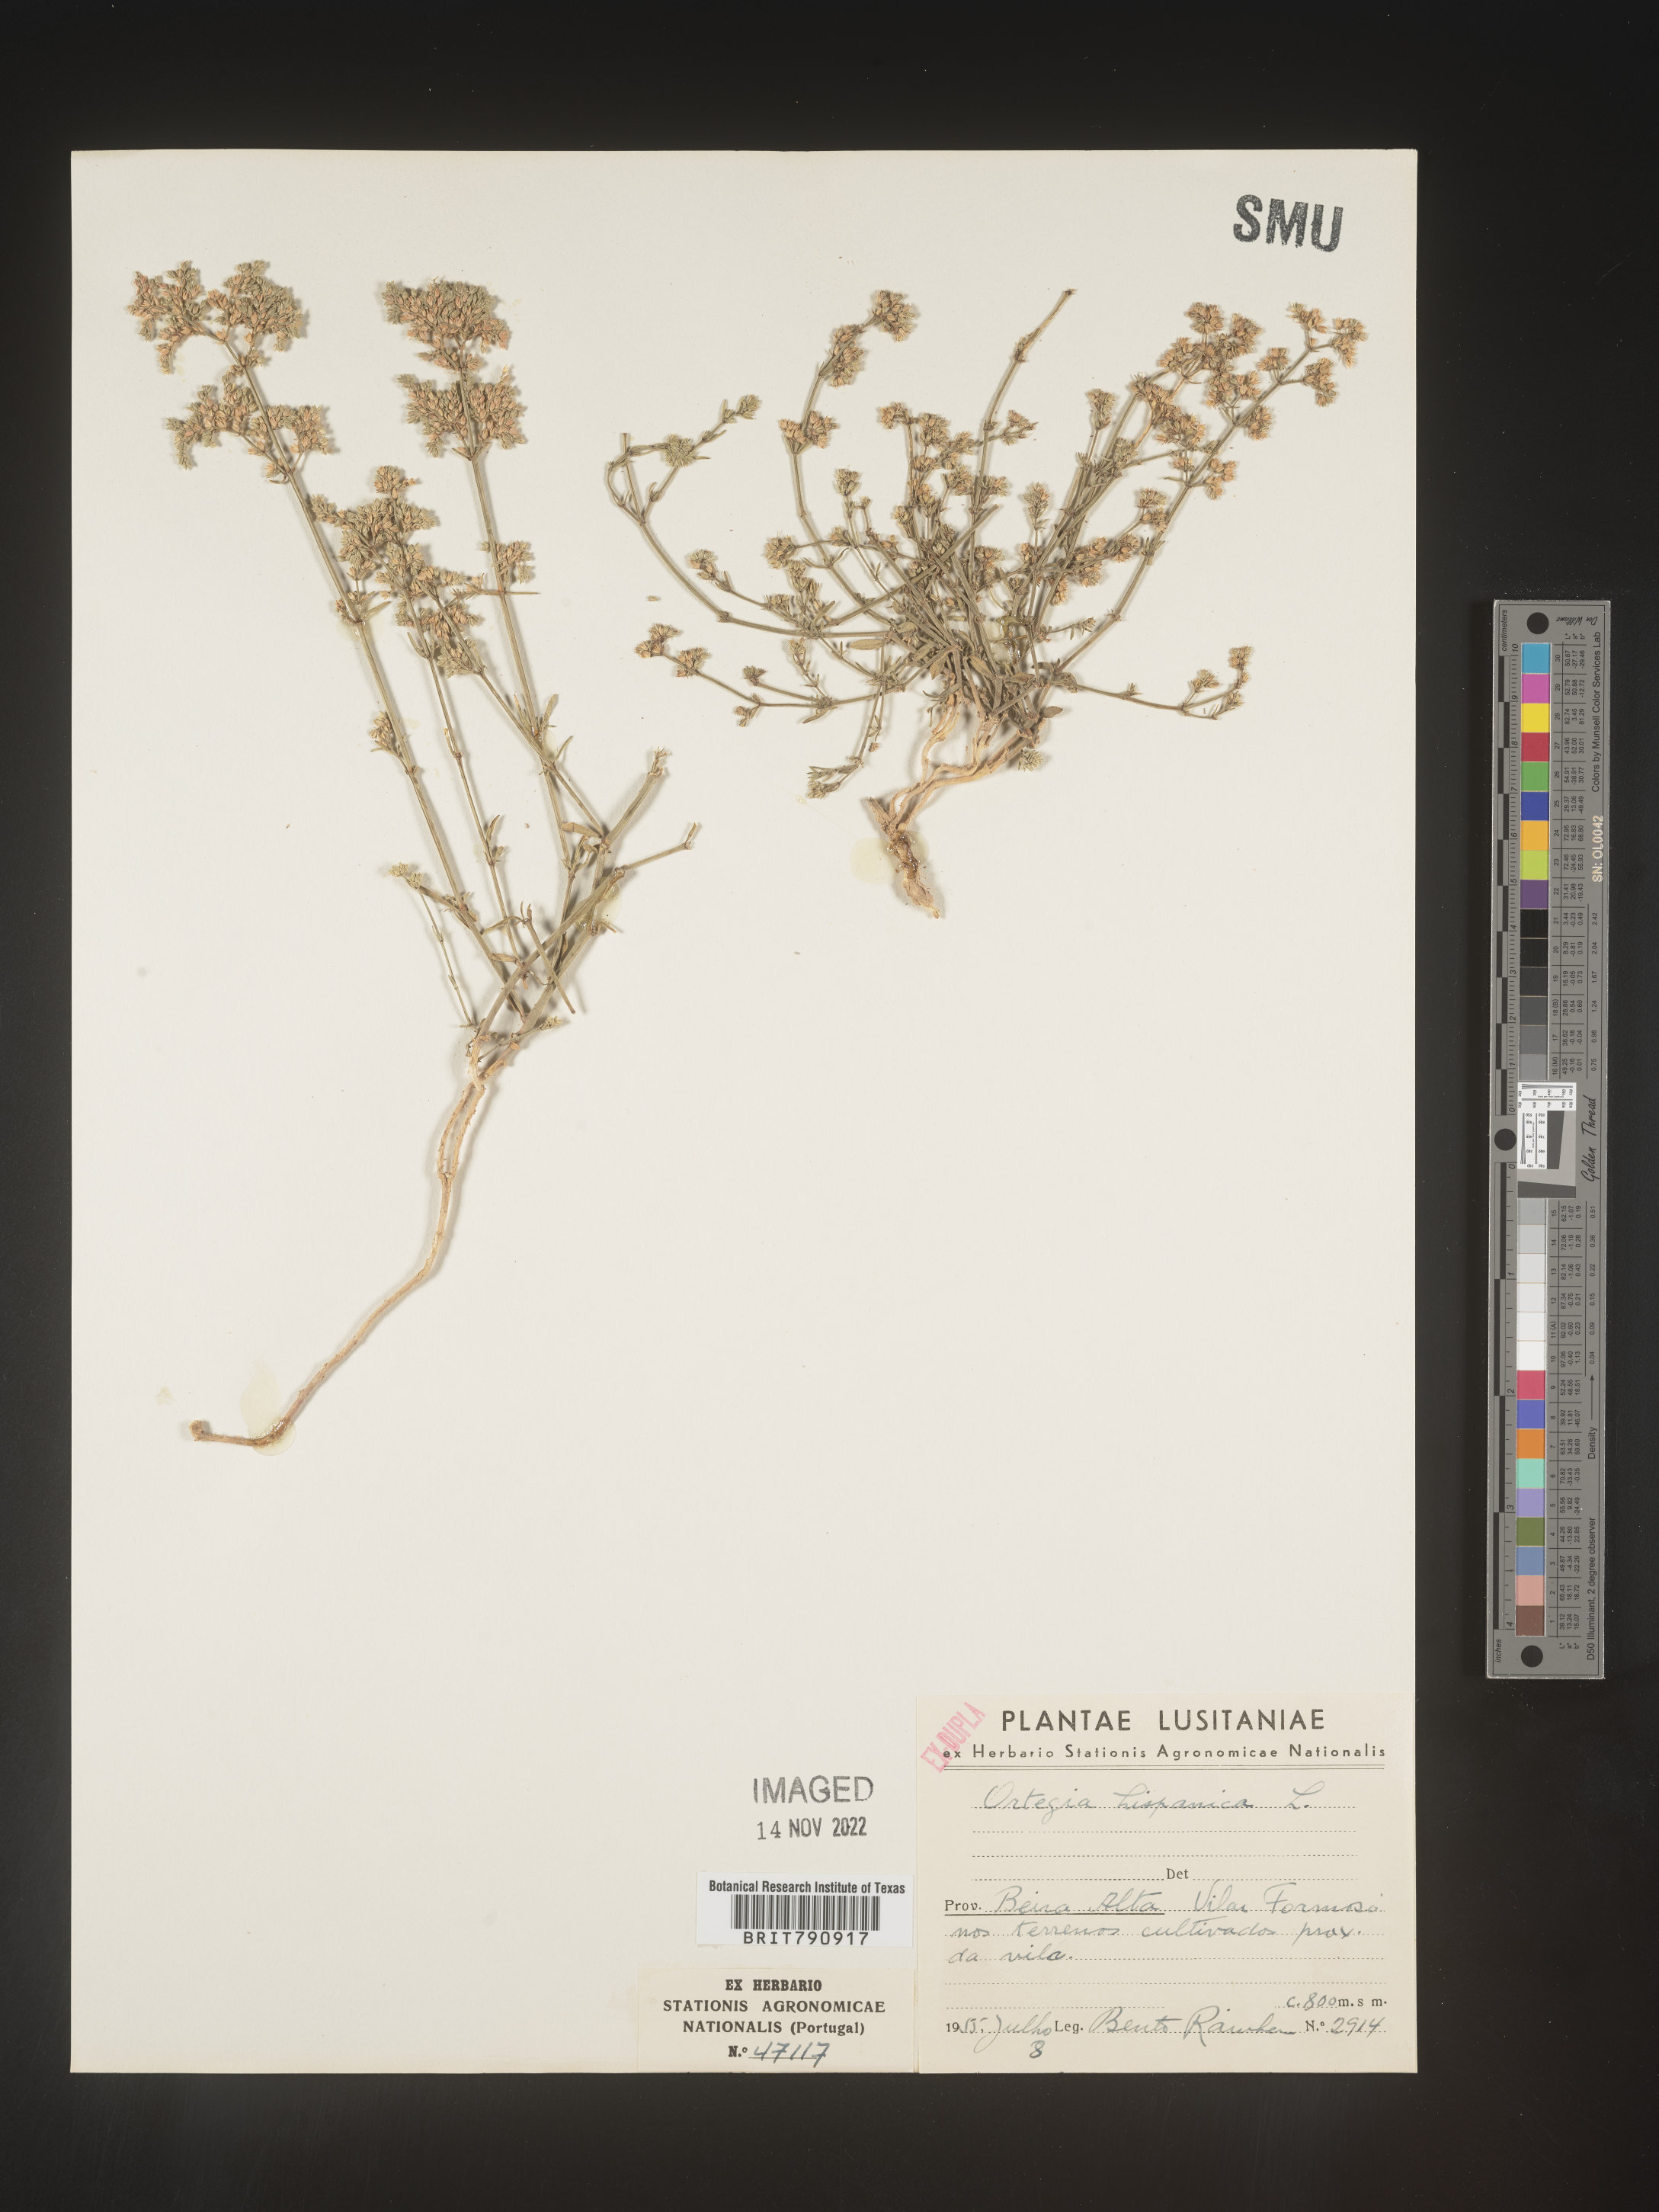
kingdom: Plantae
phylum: Tracheophyta
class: Magnoliopsida
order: Caryophyllales
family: Caryophyllaceae
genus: Ortegia
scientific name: Ortegia
